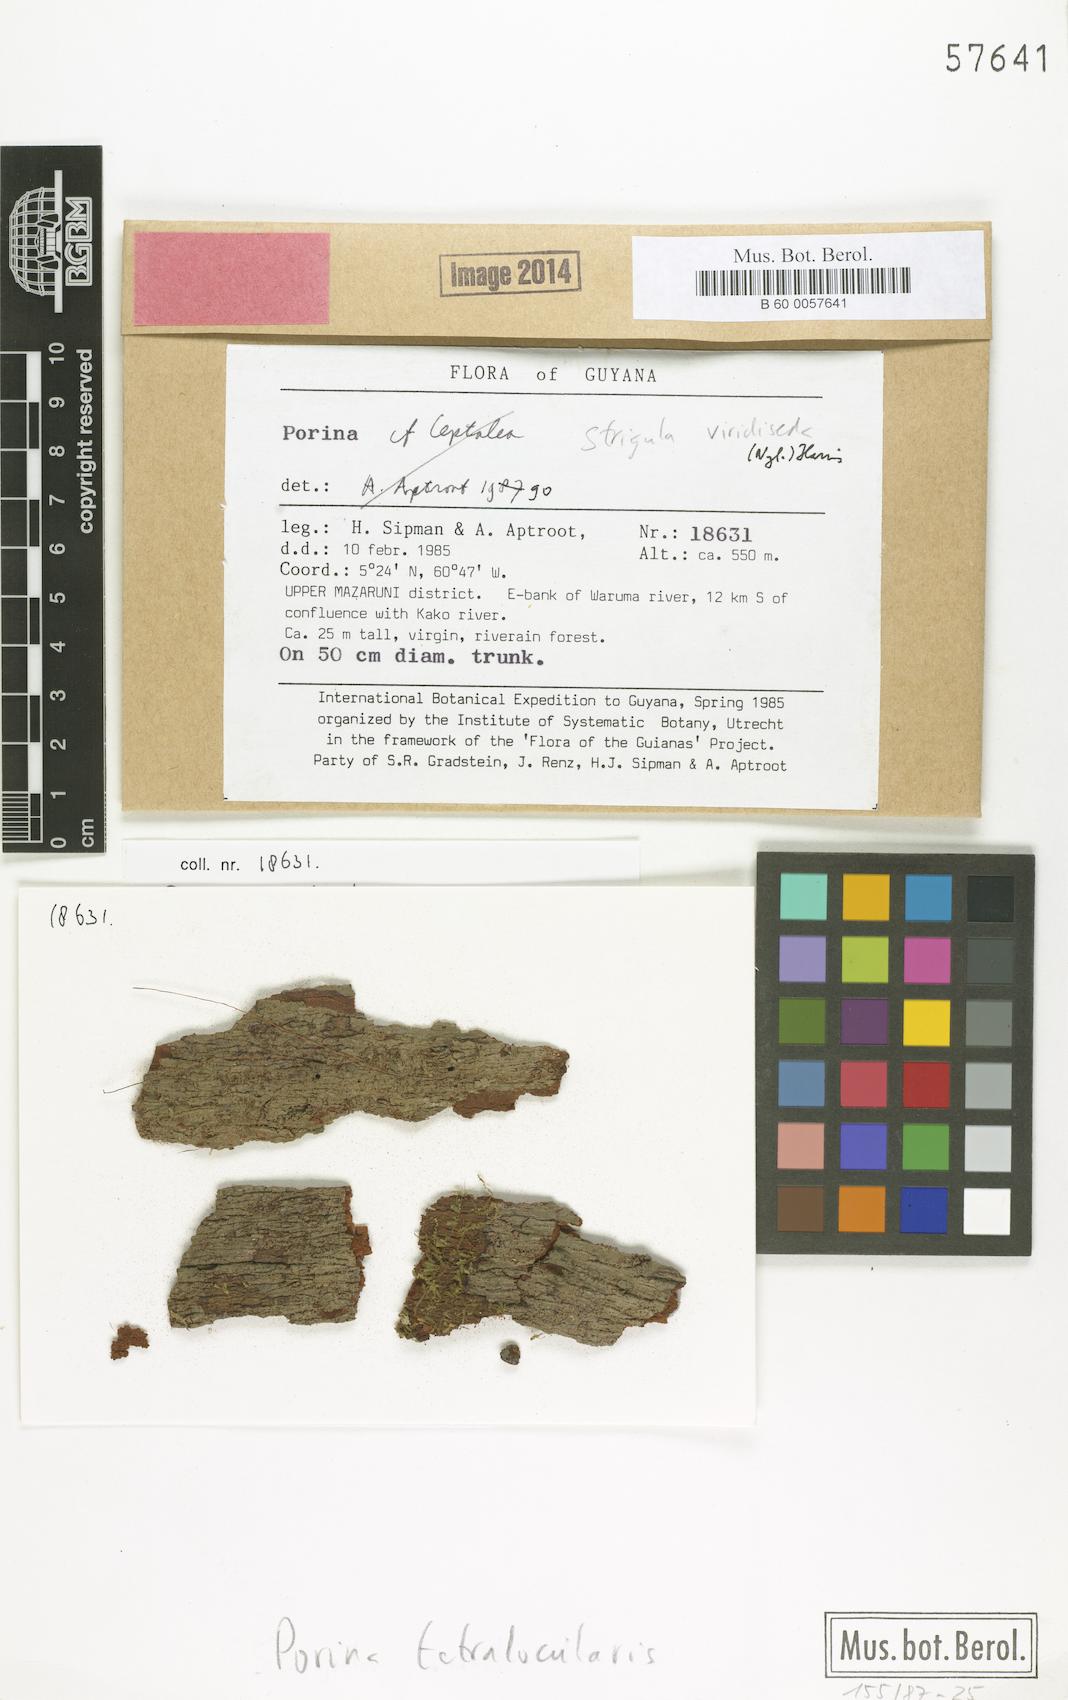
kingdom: Fungi
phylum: Ascomycota
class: Lecanoromycetes
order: Pertusariales
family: Pertusariaceae
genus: Porina
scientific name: Porina tetralocularis
